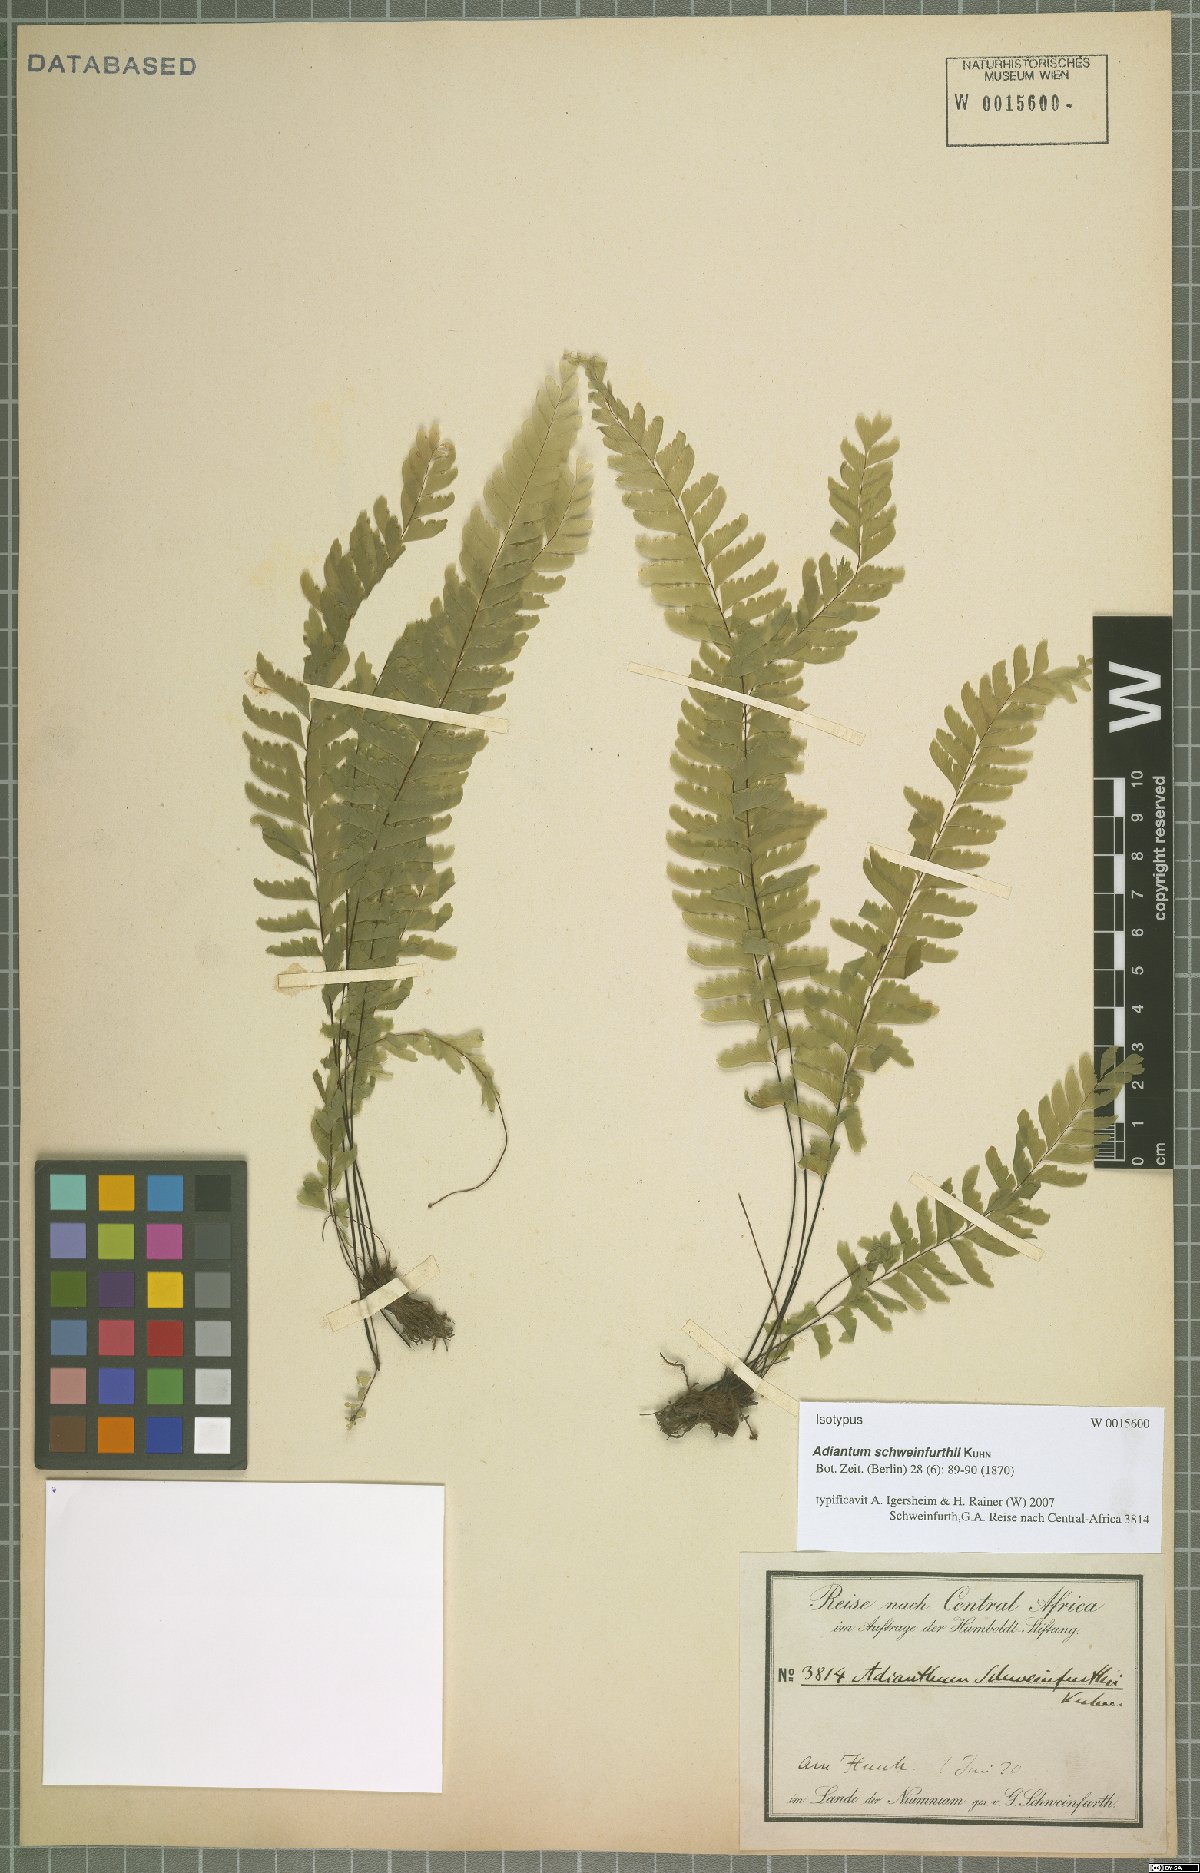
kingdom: Plantae
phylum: Tracheophyta
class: Polypodiopsida
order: Polypodiales
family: Pteridaceae
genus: Adiantum
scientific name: Adiantum schweinfurthii
